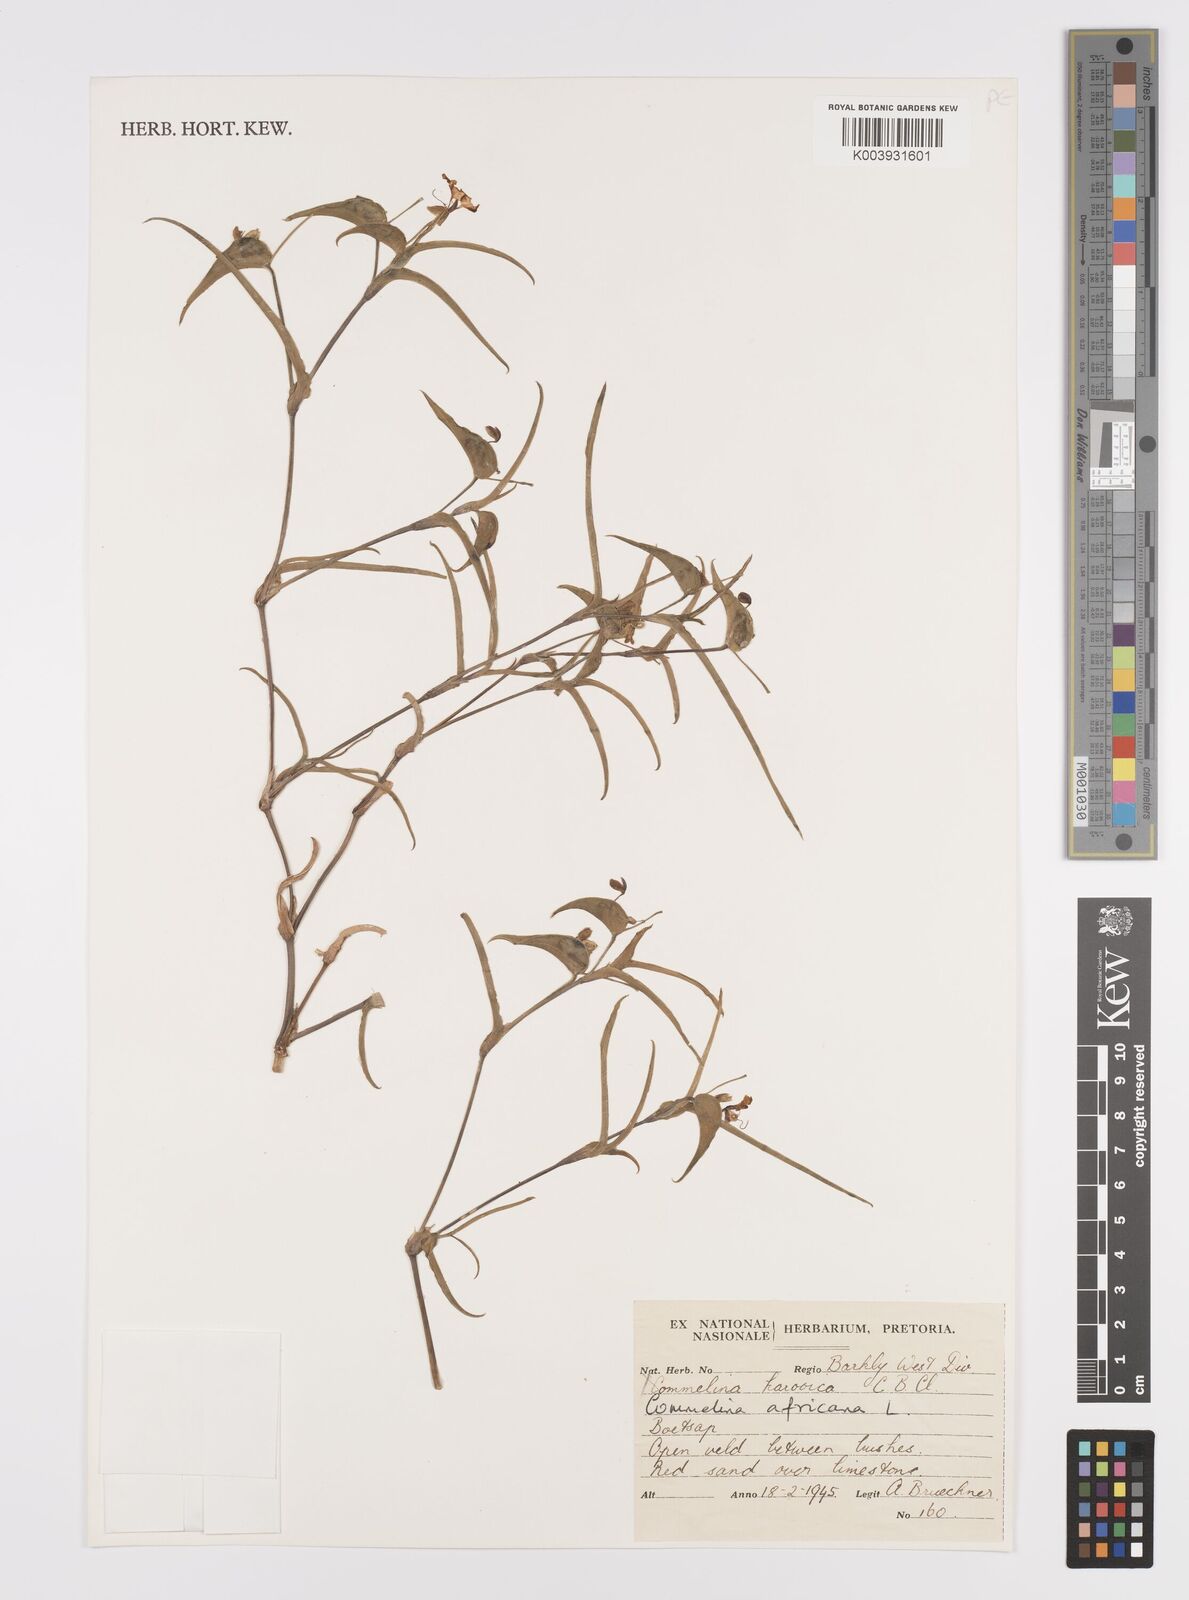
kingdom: Plantae
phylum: Tracheophyta
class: Liliopsida
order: Commelinales
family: Commelinaceae
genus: Commelina
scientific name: Commelina africana
